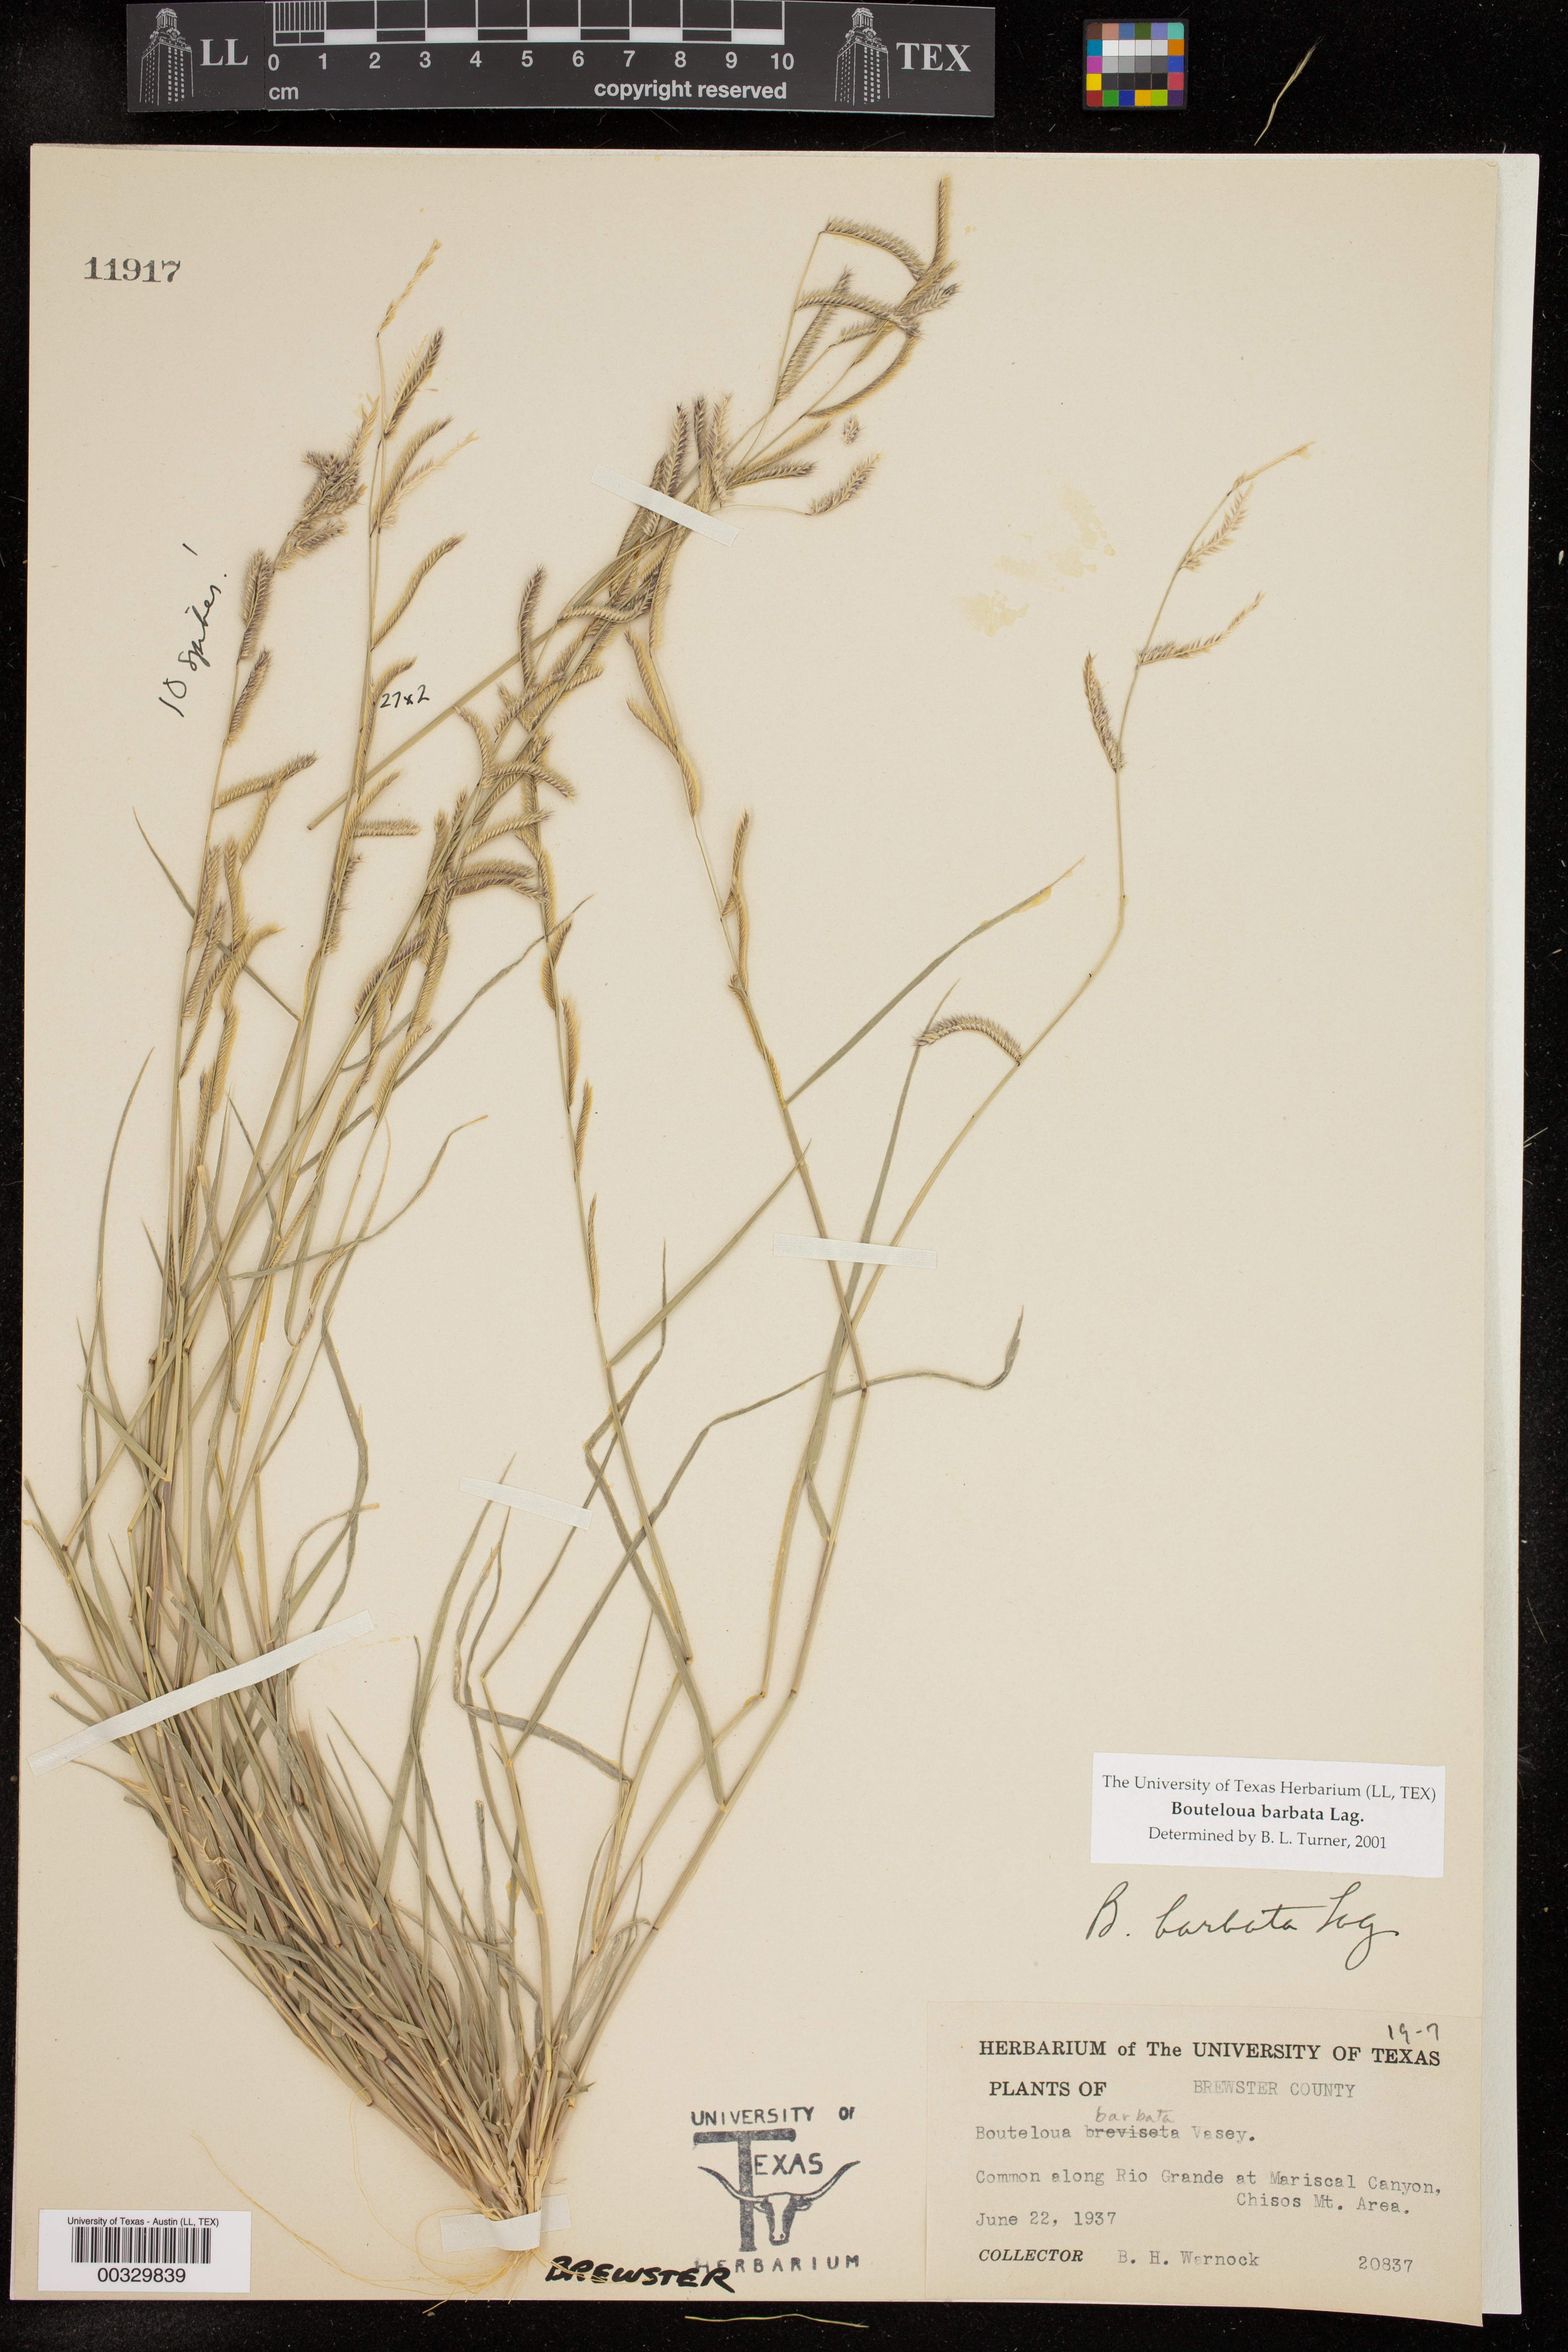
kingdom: Plantae
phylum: Tracheophyta
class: Liliopsida
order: Poales
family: Poaceae
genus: Bouteloua
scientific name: Bouteloua barbata
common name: Six-weeks grama
